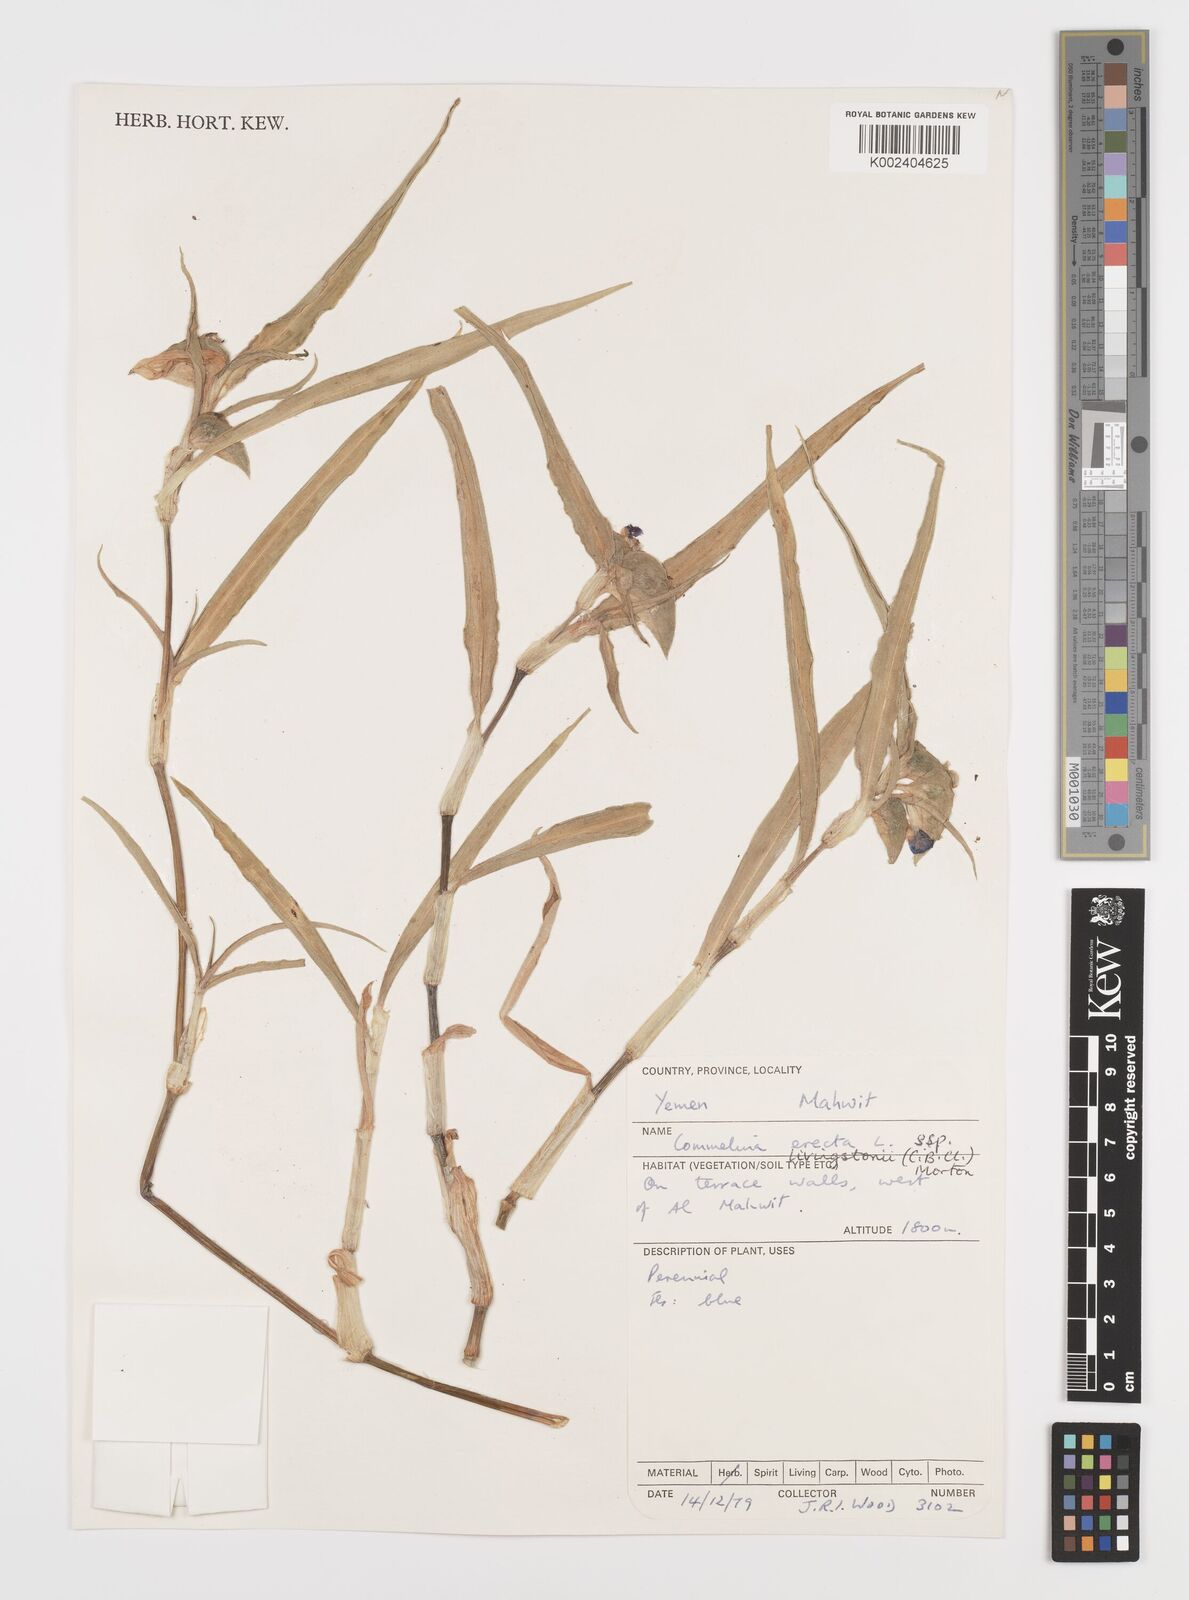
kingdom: Plantae
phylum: Tracheophyta
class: Liliopsida
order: Commelinales
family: Commelinaceae
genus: Commelina
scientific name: Commelina erecta
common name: Blousel blommetjie
